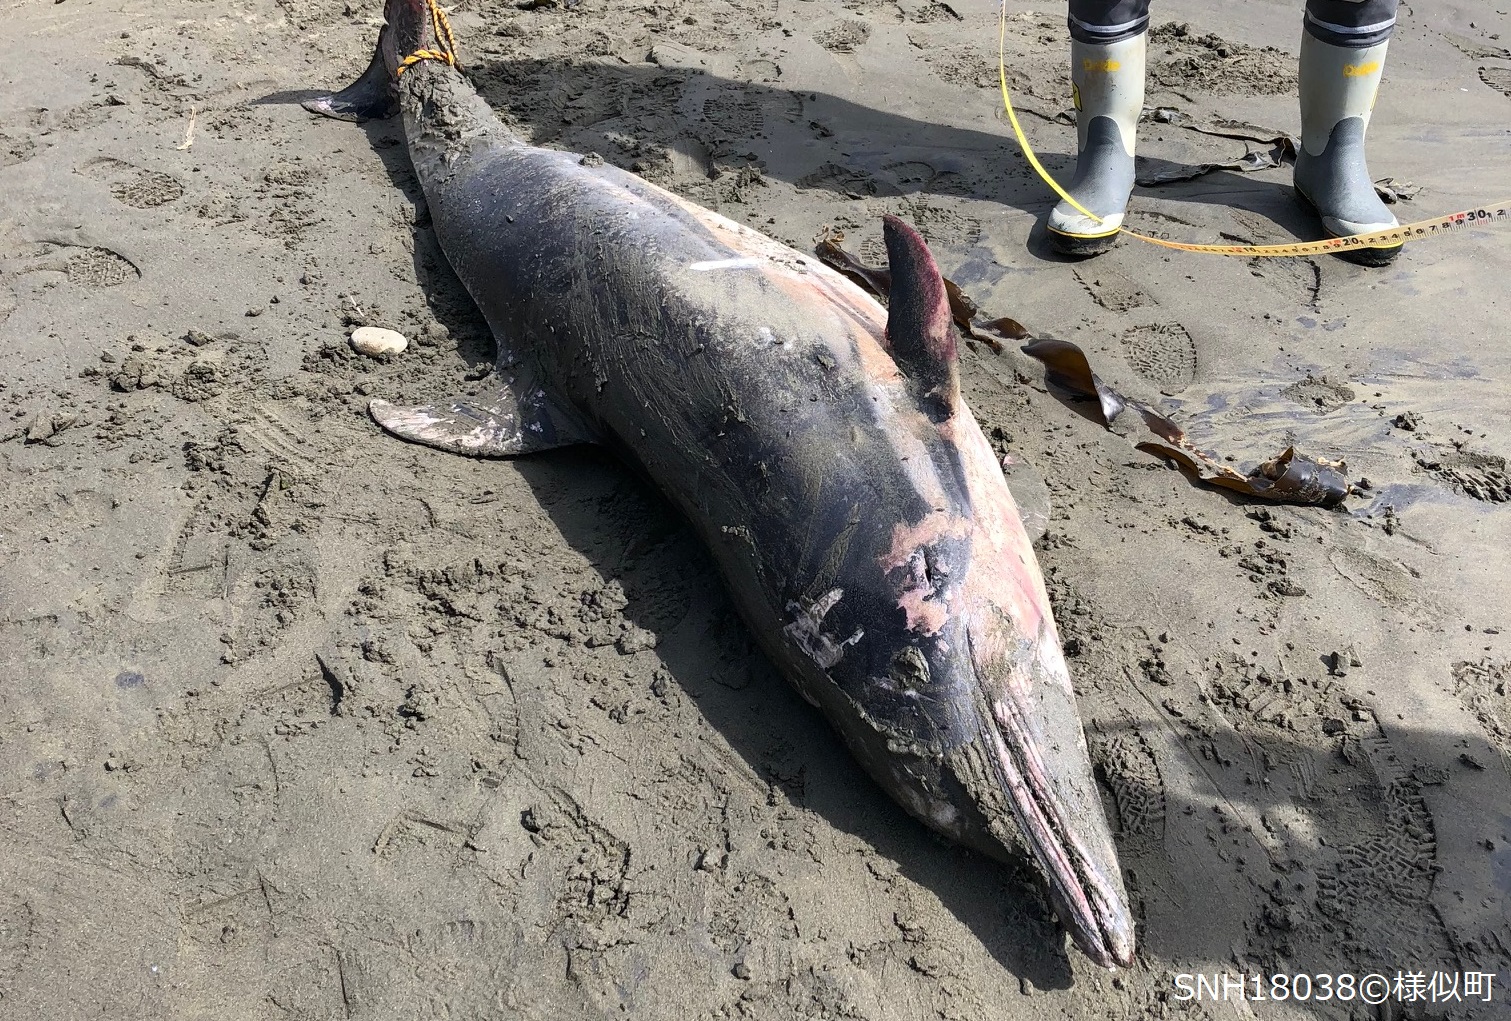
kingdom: Animalia
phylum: Chordata
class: Mammalia
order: Cetacea
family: Delphinidae
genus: Stenella
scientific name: Stenella coeruleoalba
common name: Striped dolphin
